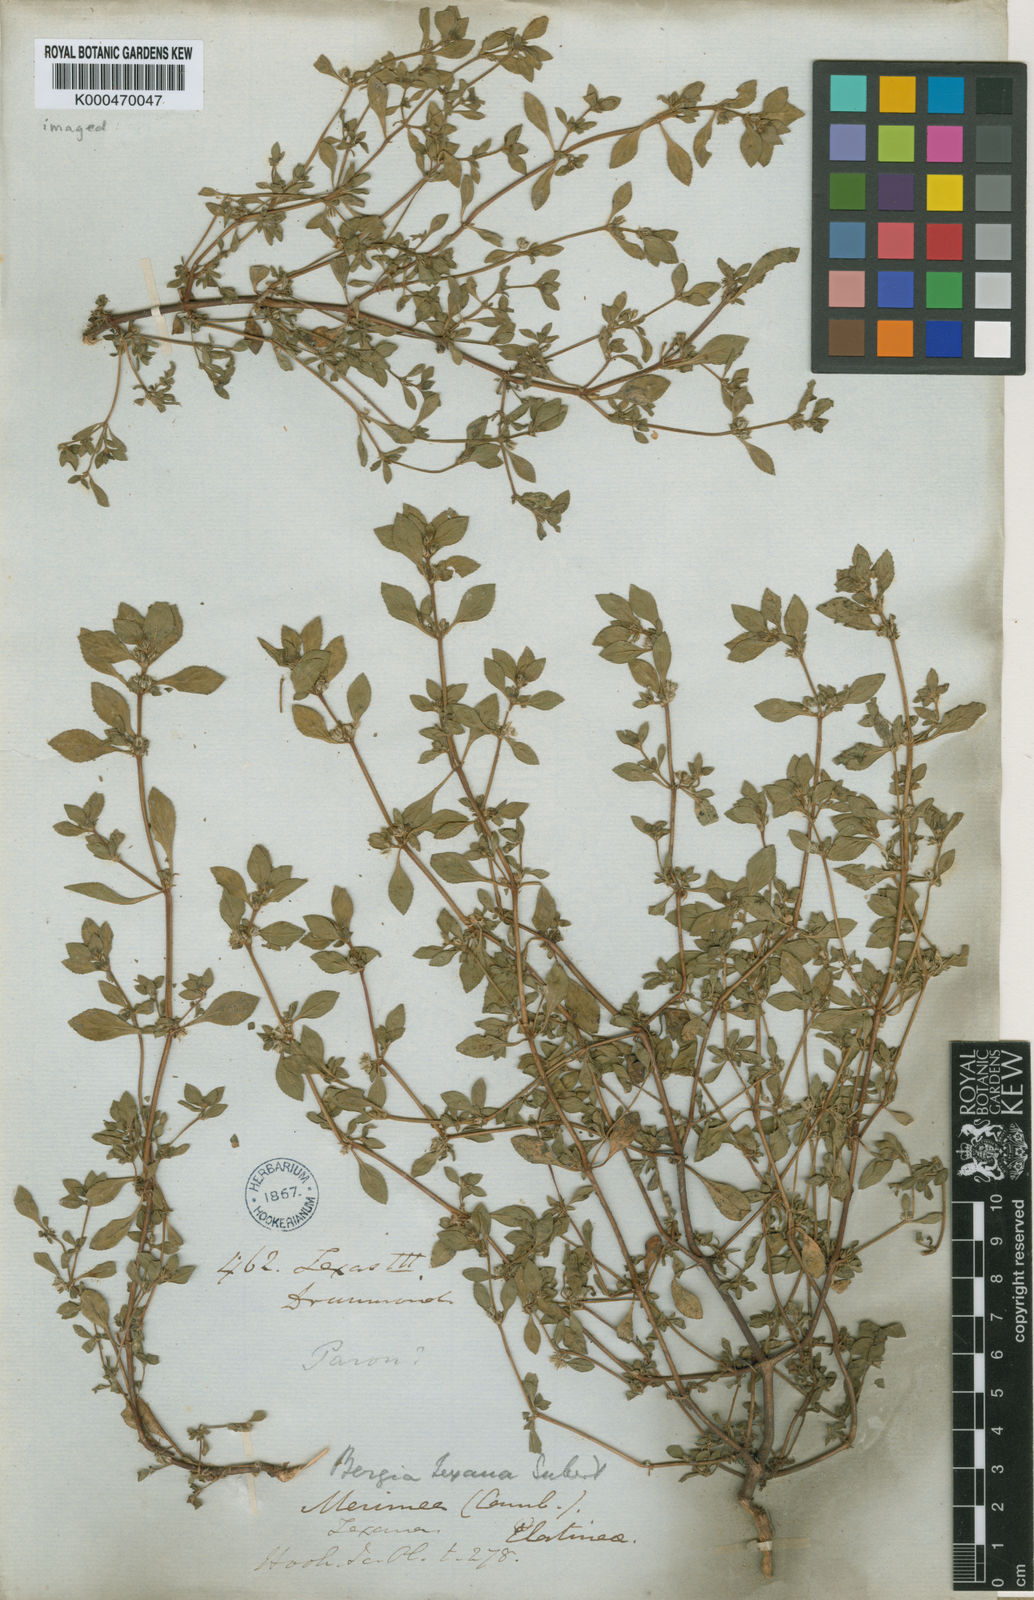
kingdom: Plantae
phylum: Tracheophyta
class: Magnoliopsida
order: Malpighiales
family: Elatinaceae
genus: Bergia
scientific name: Bergia
